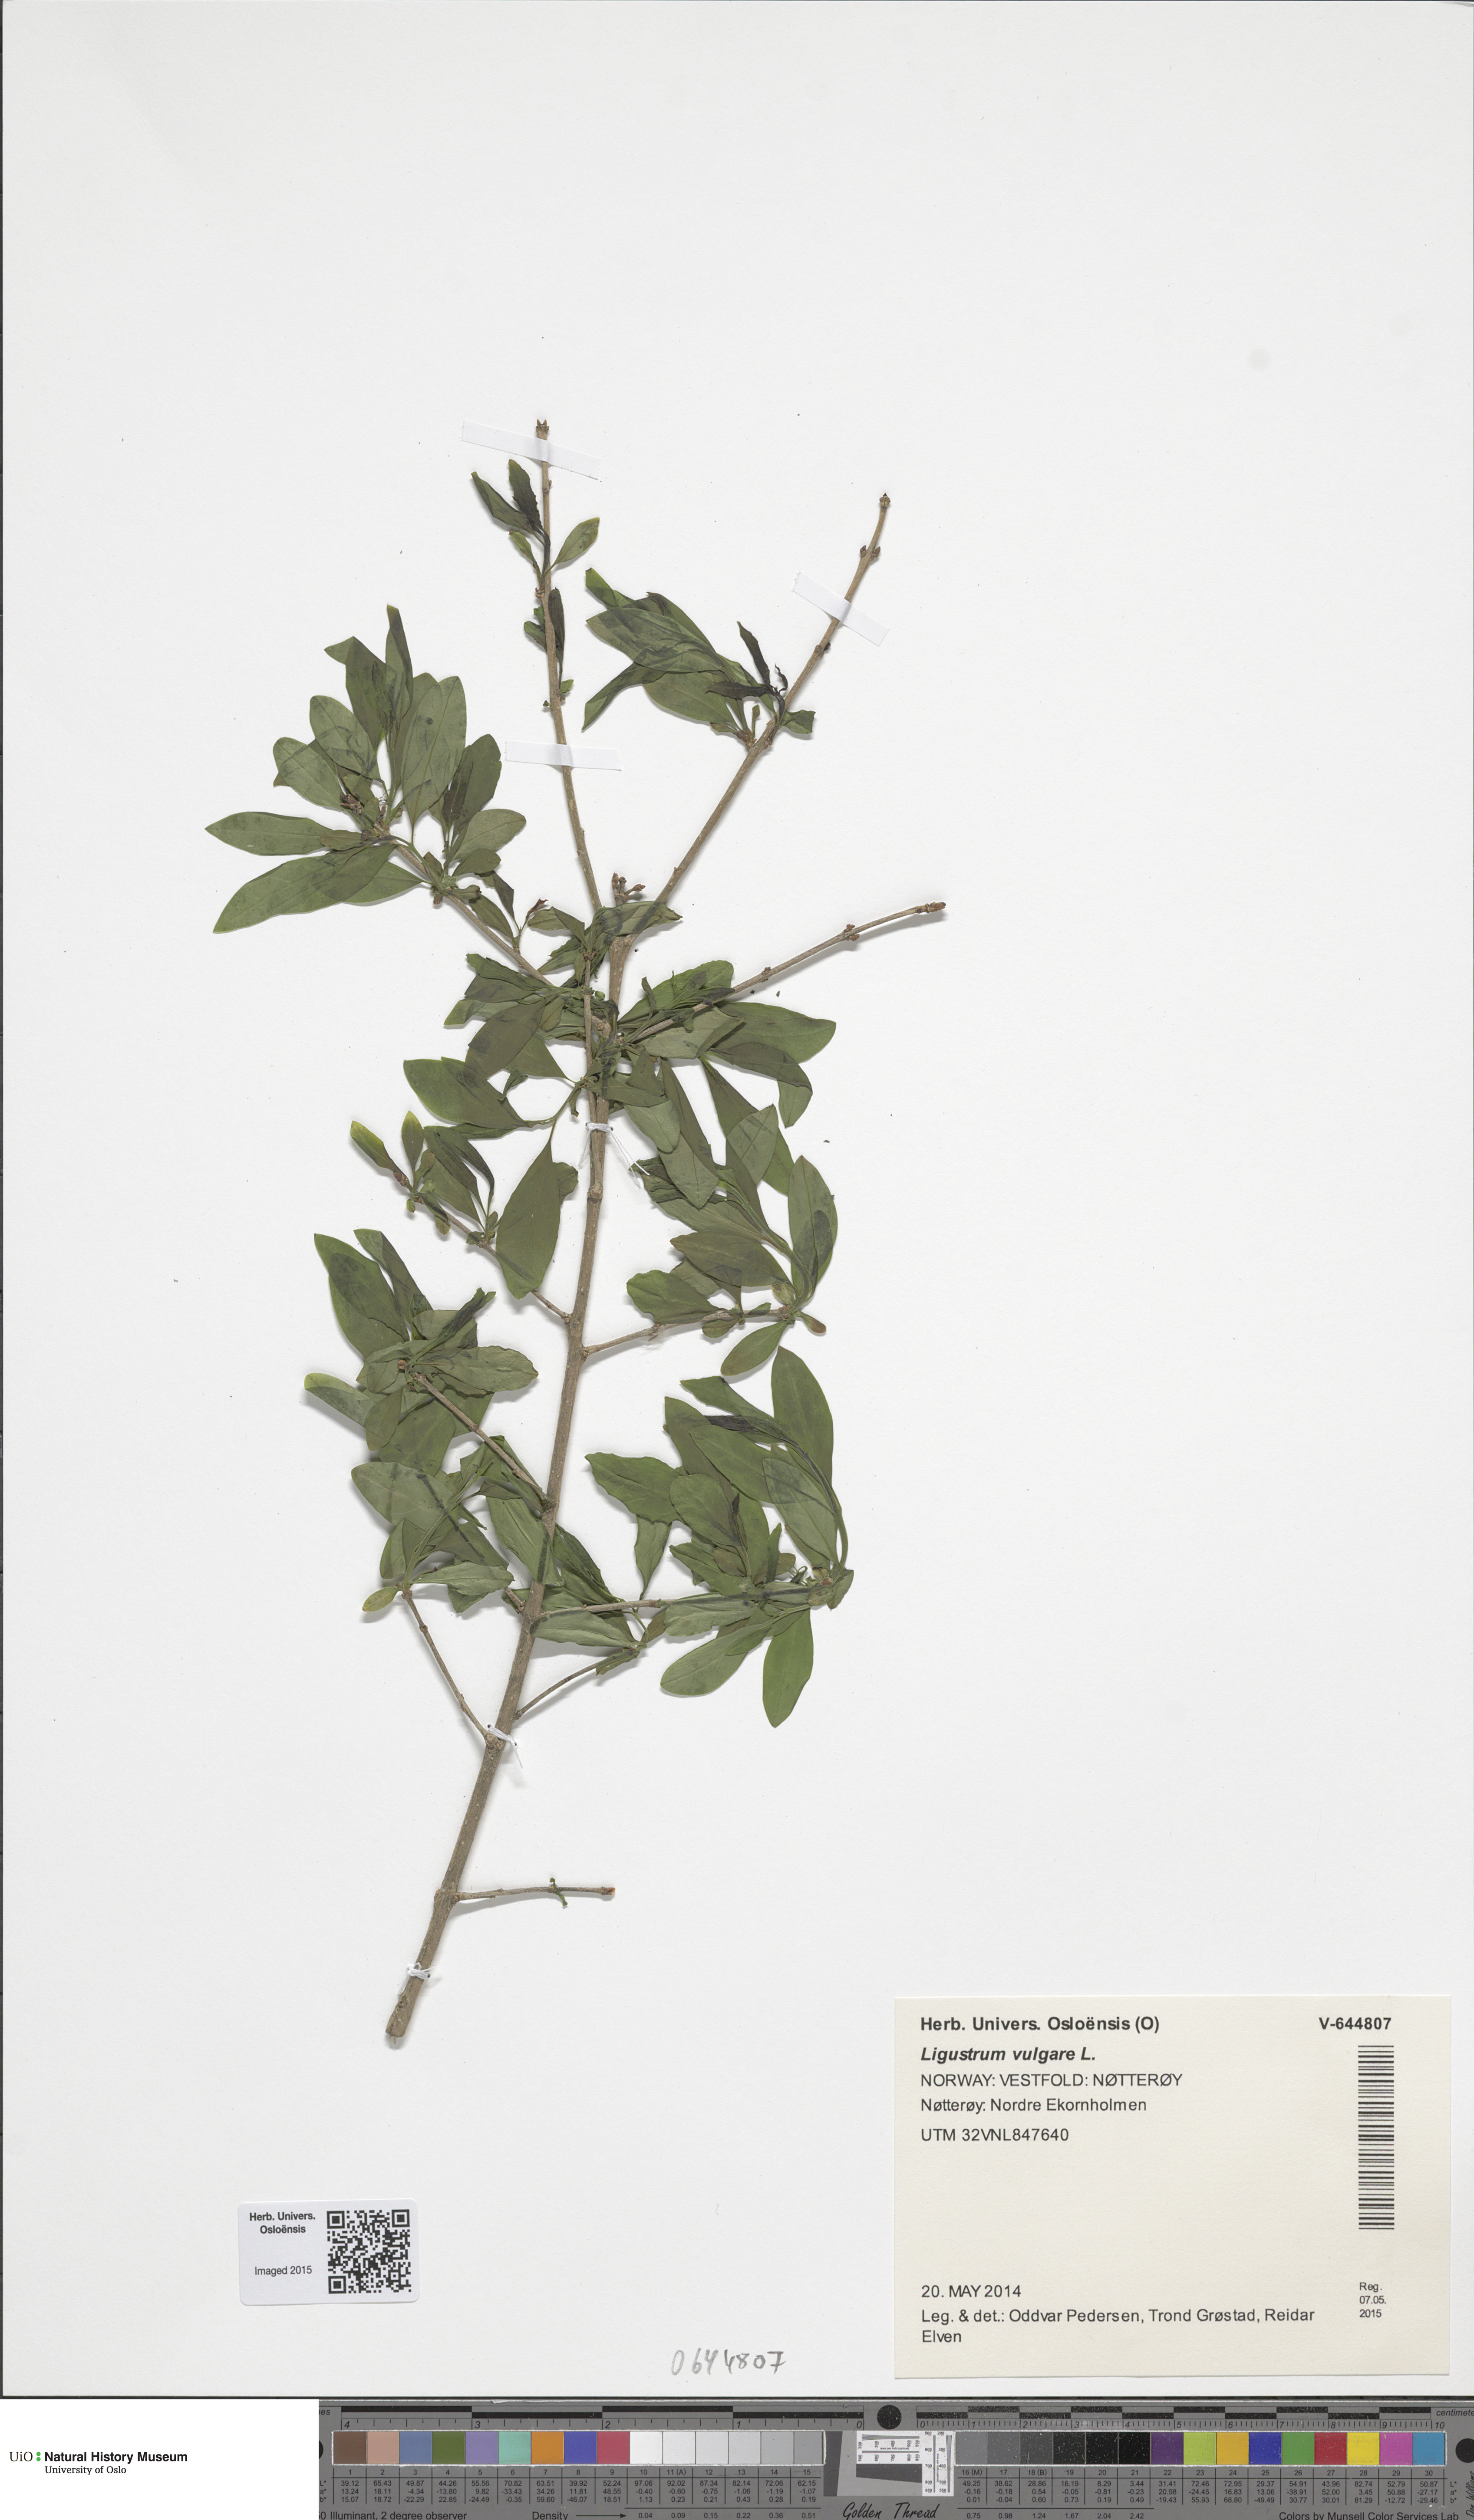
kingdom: Plantae
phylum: Tracheophyta
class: Magnoliopsida
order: Lamiales
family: Oleaceae
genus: Ligustrum
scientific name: Ligustrum vulgare
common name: Wild privet
